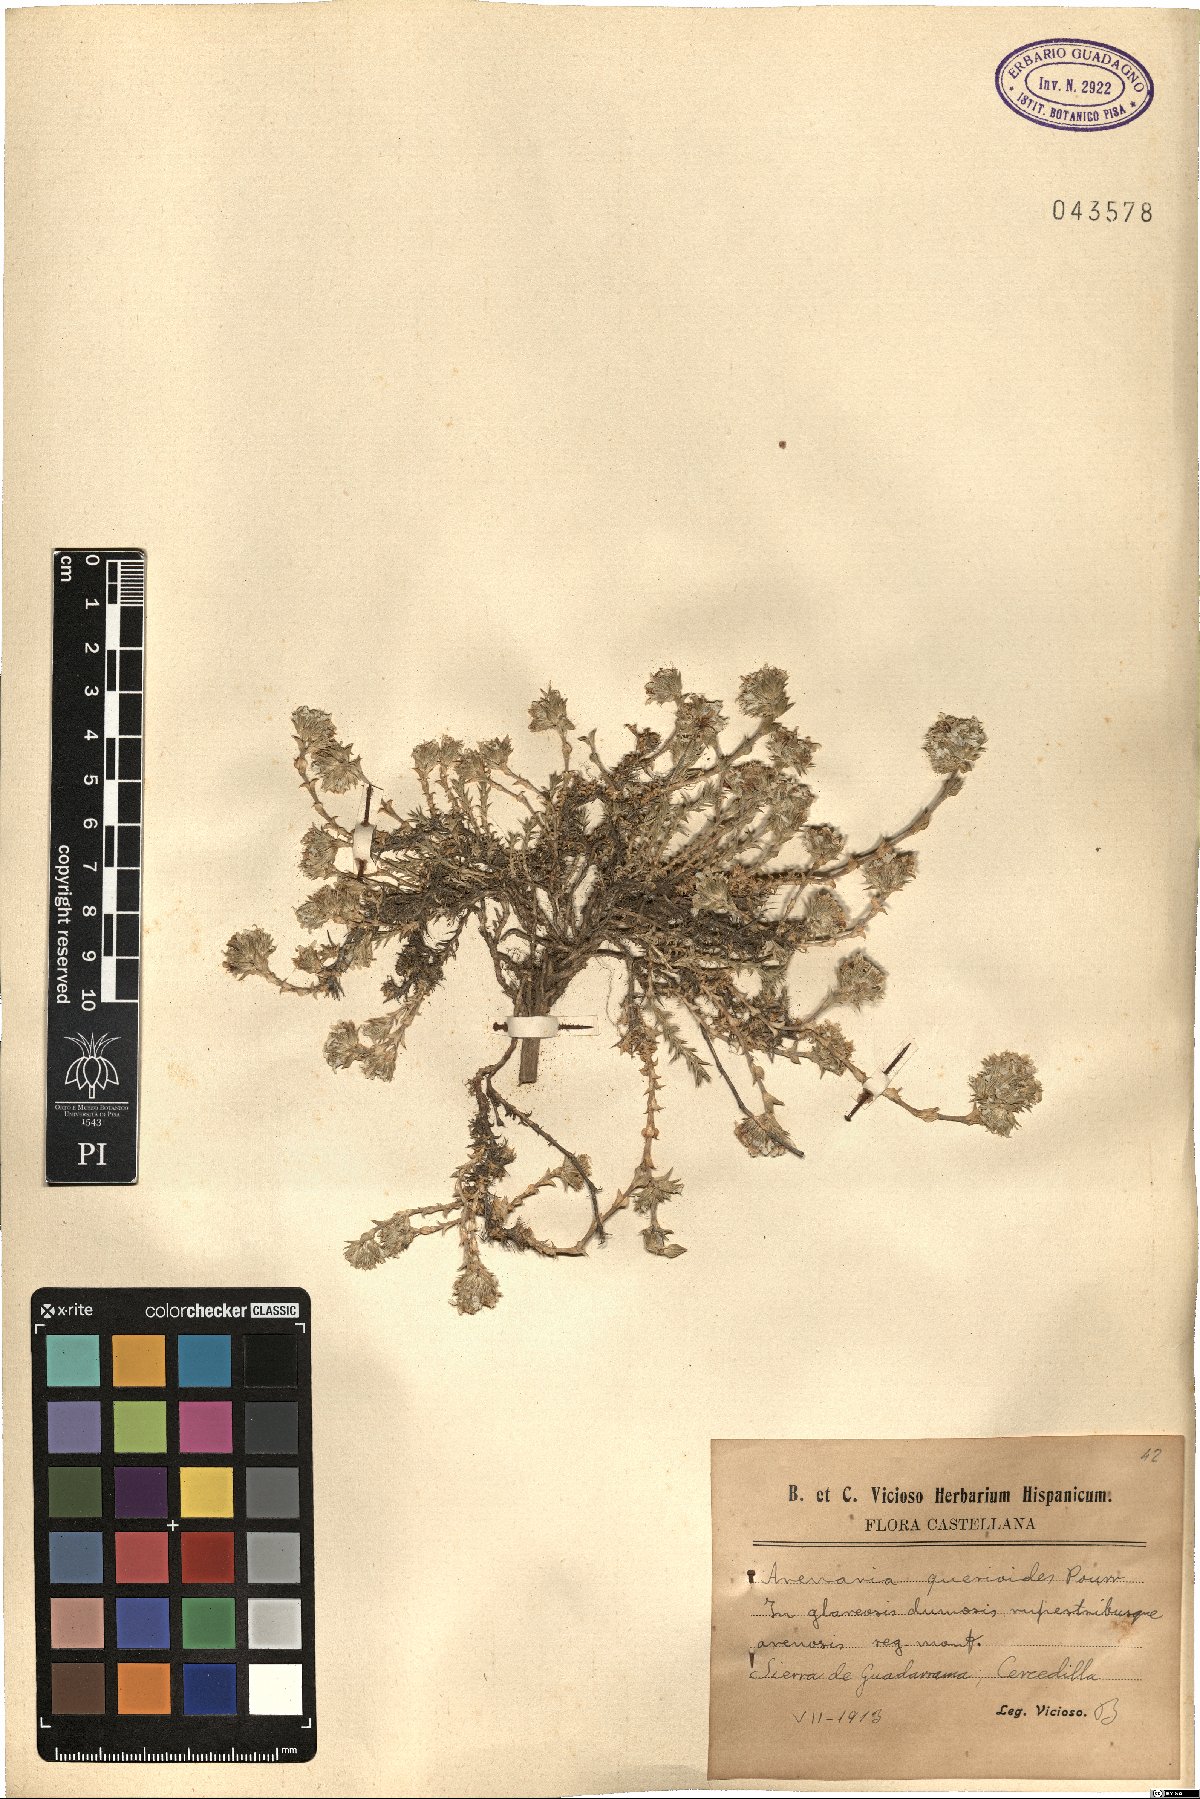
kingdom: Plantae
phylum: Tracheophyta
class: Magnoliopsida
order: Caryophyllales
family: Caryophyllaceae
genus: Arenaria
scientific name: Arenaria querioides
